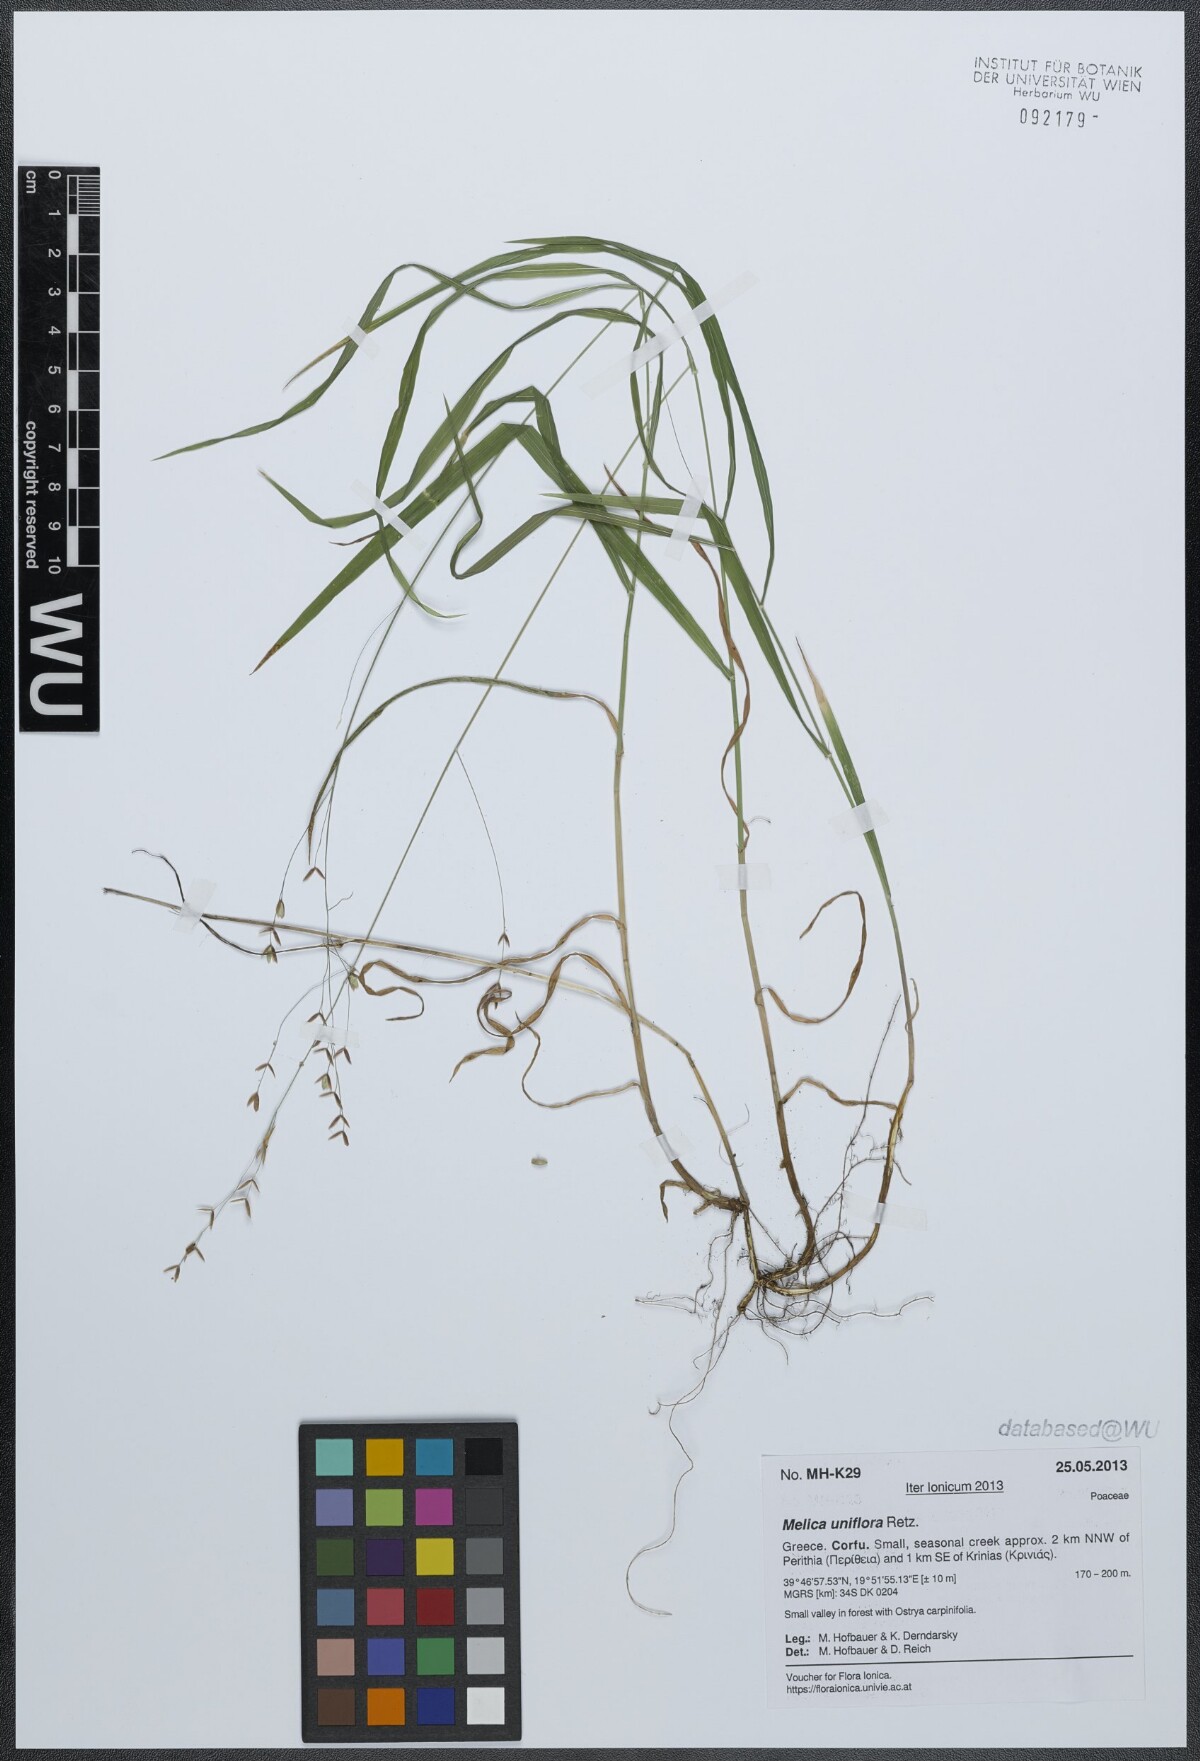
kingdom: Plantae
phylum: Tracheophyta
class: Liliopsida
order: Poales
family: Poaceae
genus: Melica
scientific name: Melica uniflora
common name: Wood melick
